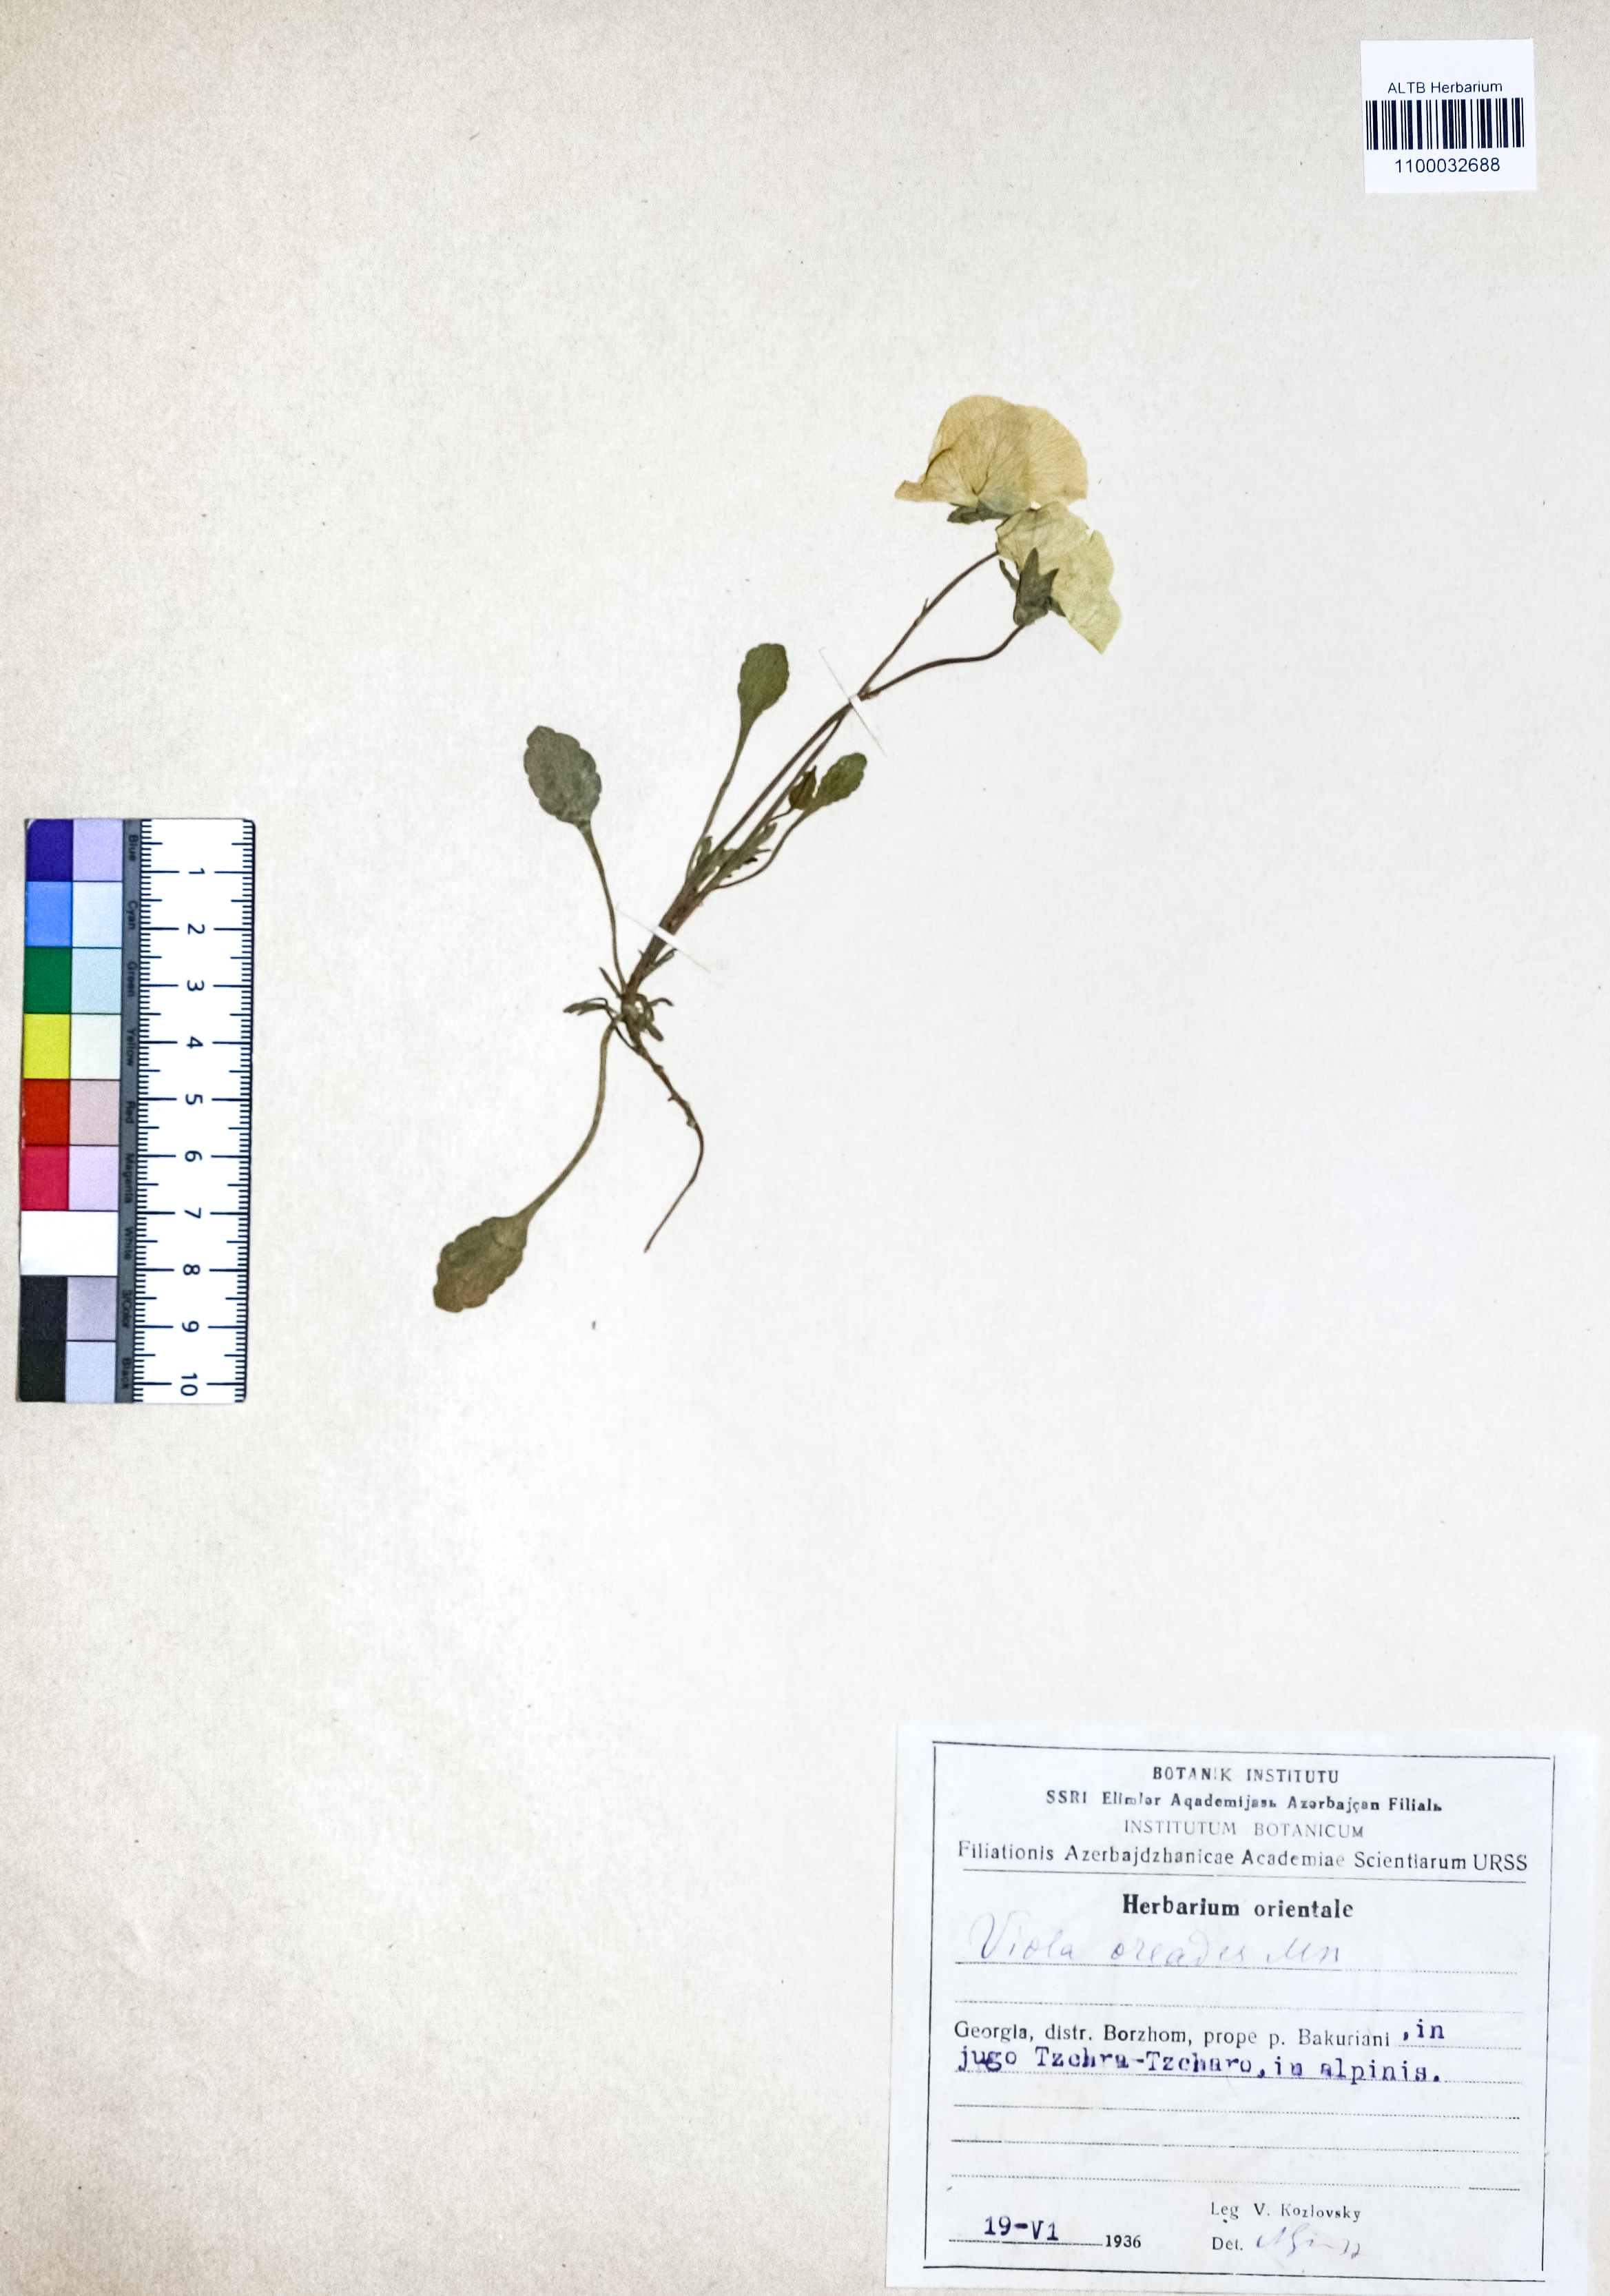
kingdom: Plantae
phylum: Tracheophyta
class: Magnoliopsida
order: Malpighiales
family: Violaceae
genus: Viola
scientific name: Viola oreades
